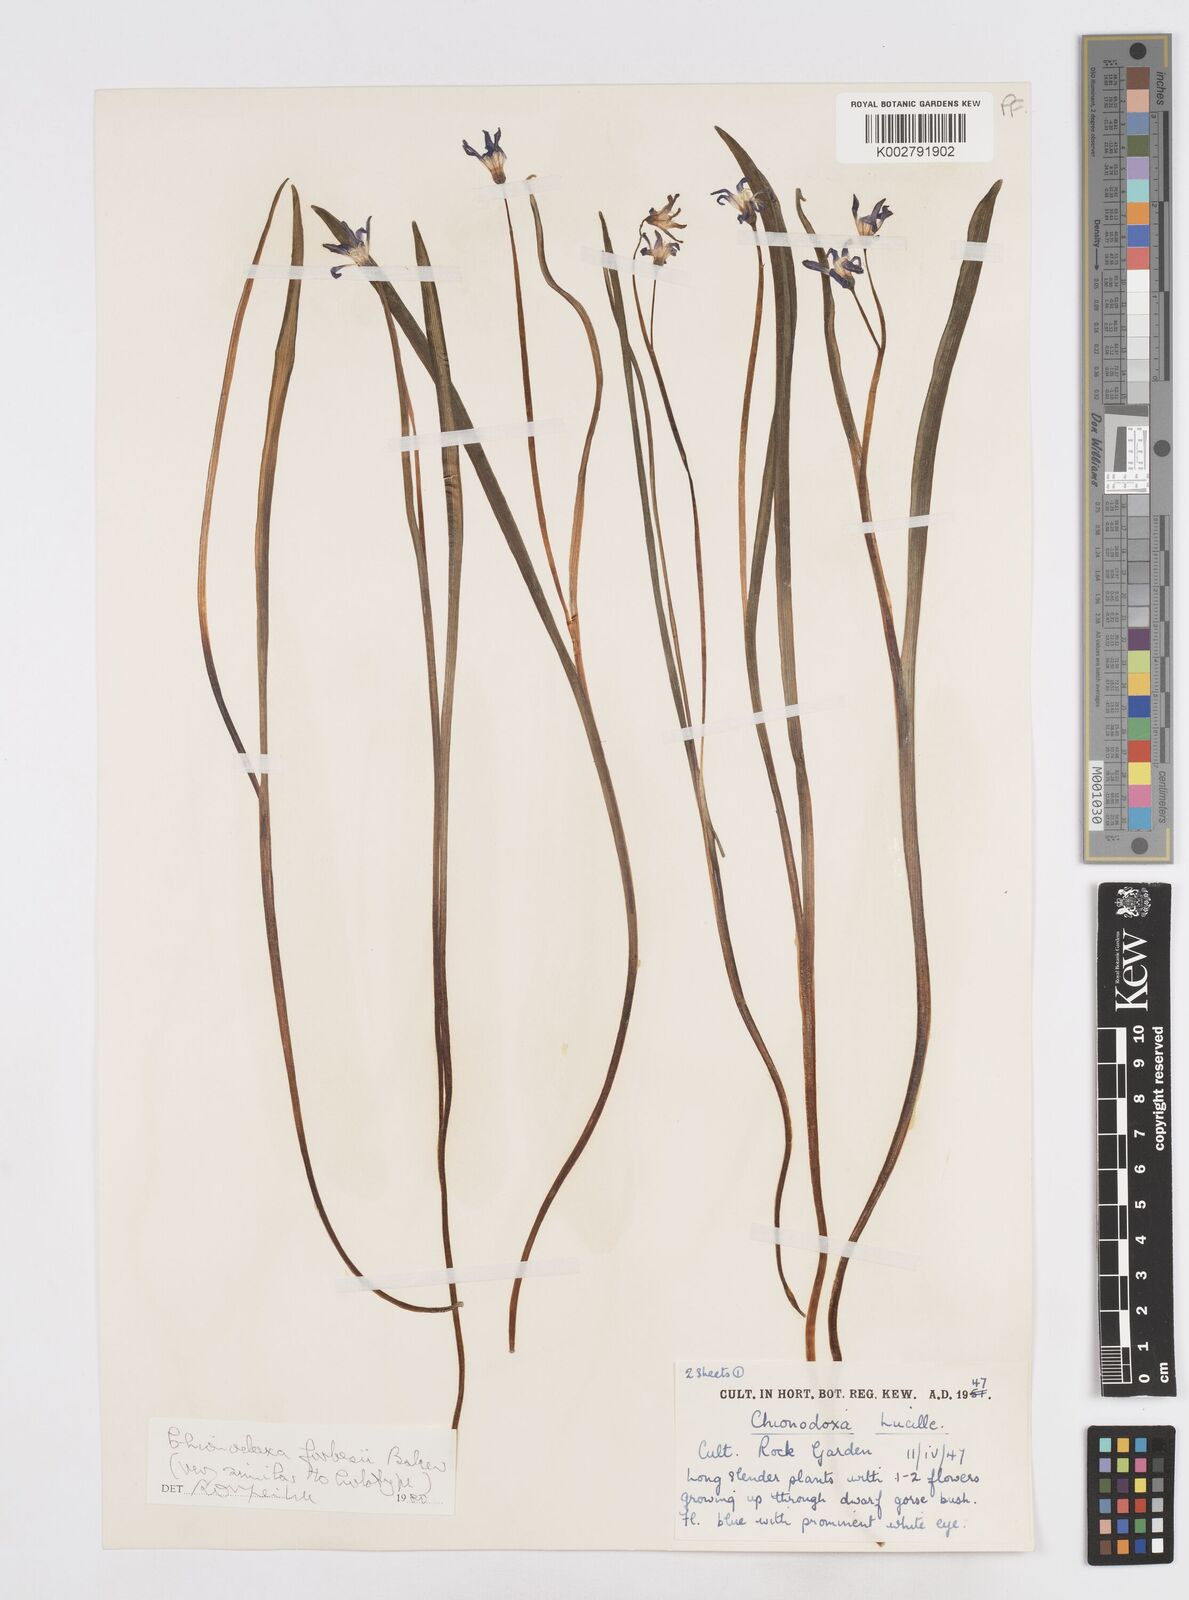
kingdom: Plantae
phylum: Tracheophyta
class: Liliopsida
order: Asparagales
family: Asparagaceae
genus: Scilla
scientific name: Scilla forbesii
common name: Glory-of-the-snow
